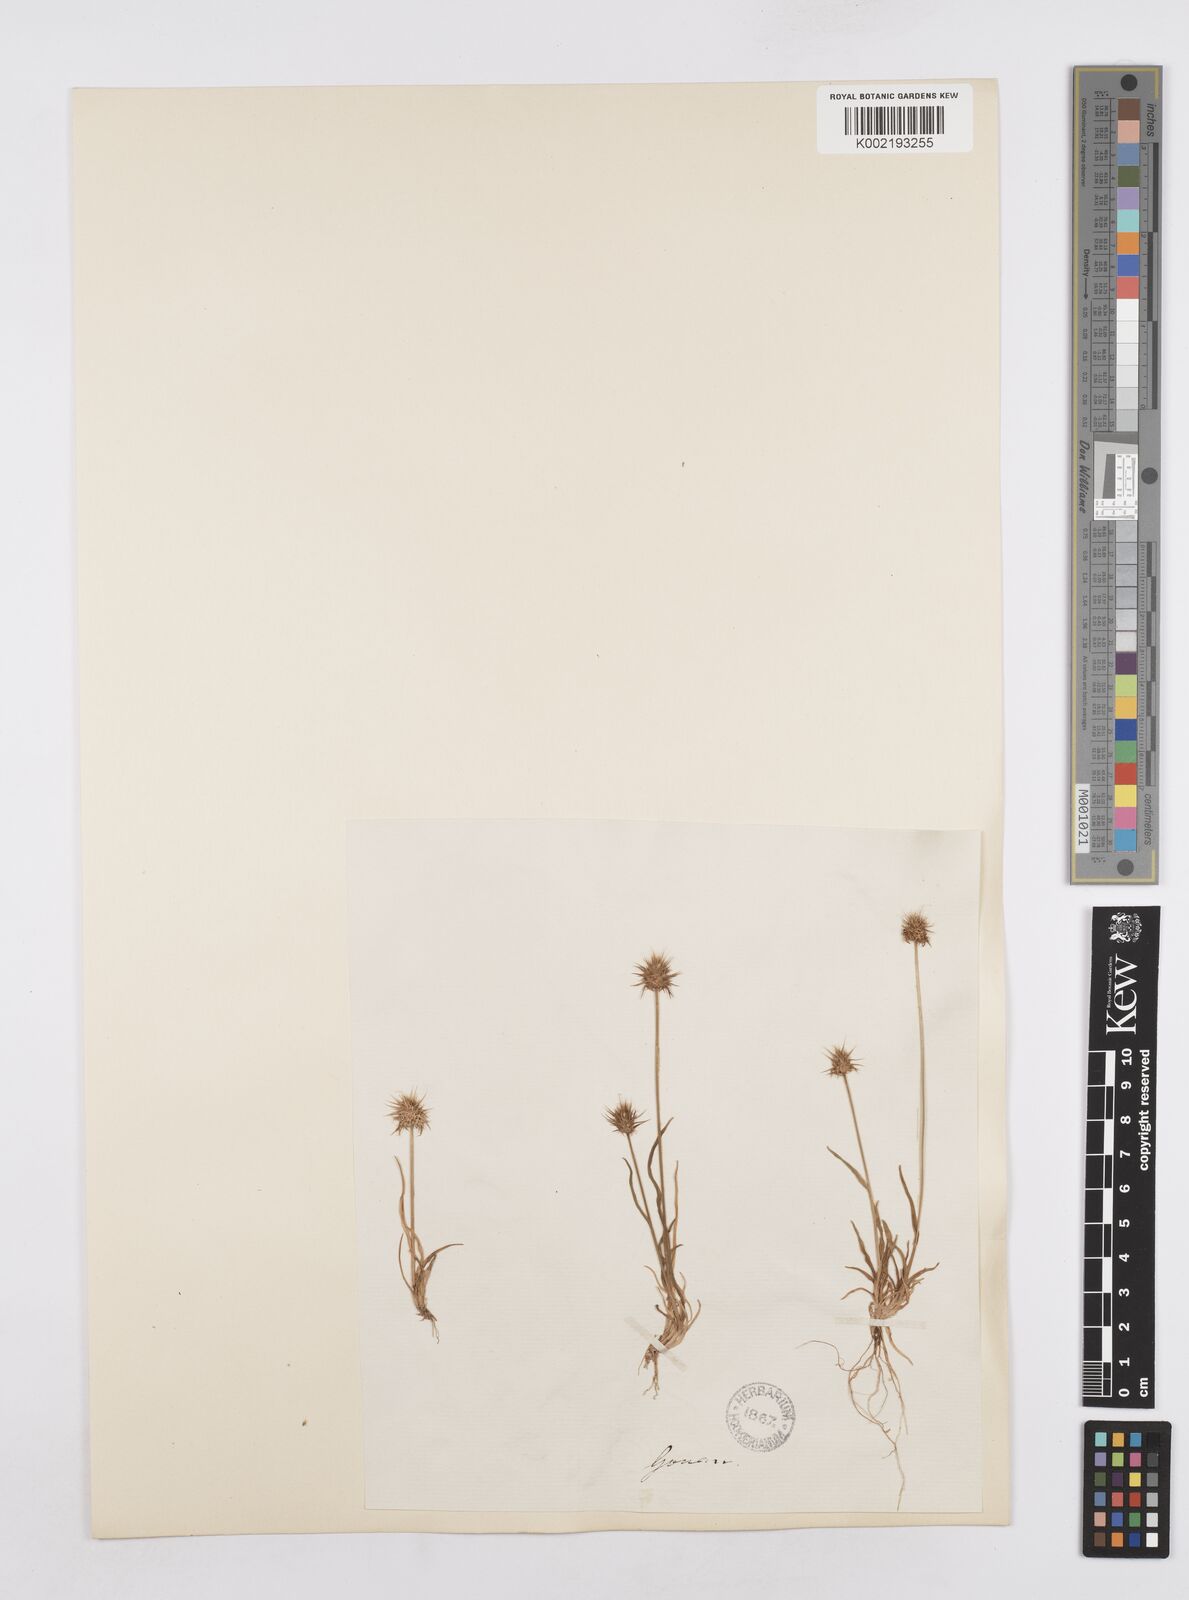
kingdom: Plantae
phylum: Tracheophyta
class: Liliopsida
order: Poales
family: Poaceae
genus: Echinaria
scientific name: Echinaria capitata
